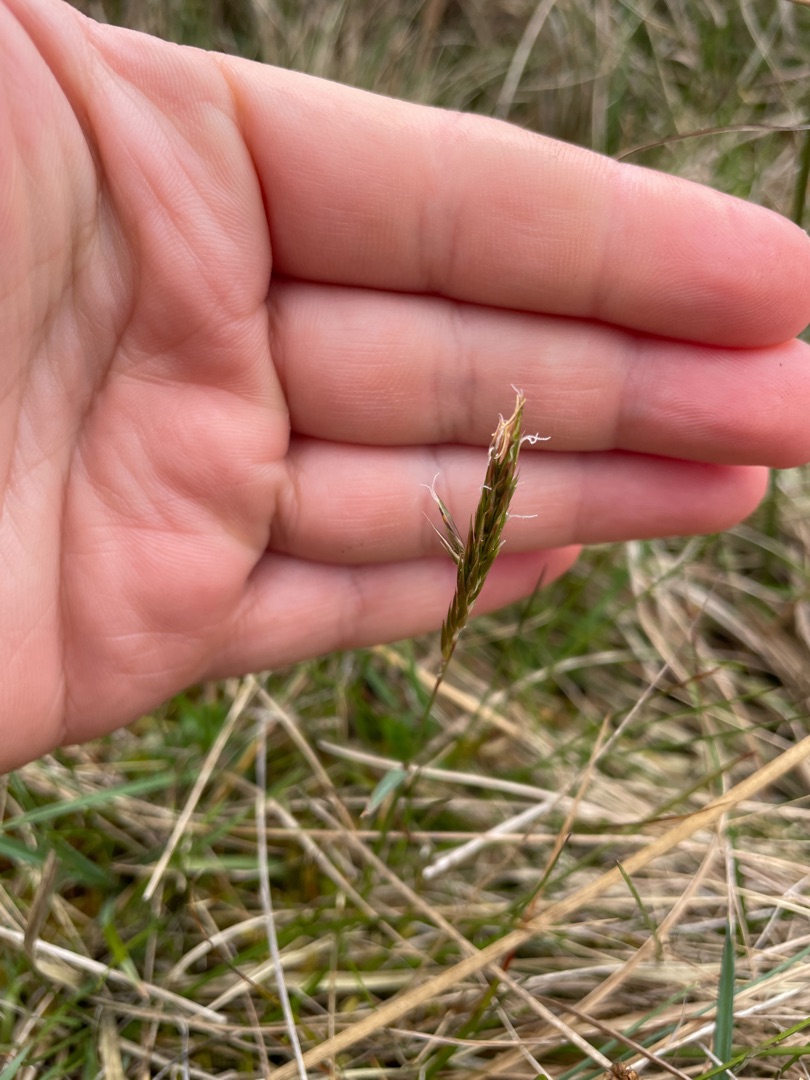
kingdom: Plantae
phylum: Tracheophyta
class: Liliopsida
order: Poales
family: Poaceae
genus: Anthoxanthum
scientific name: Anthoxanthum odoratum
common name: Vellugtende gulaks
